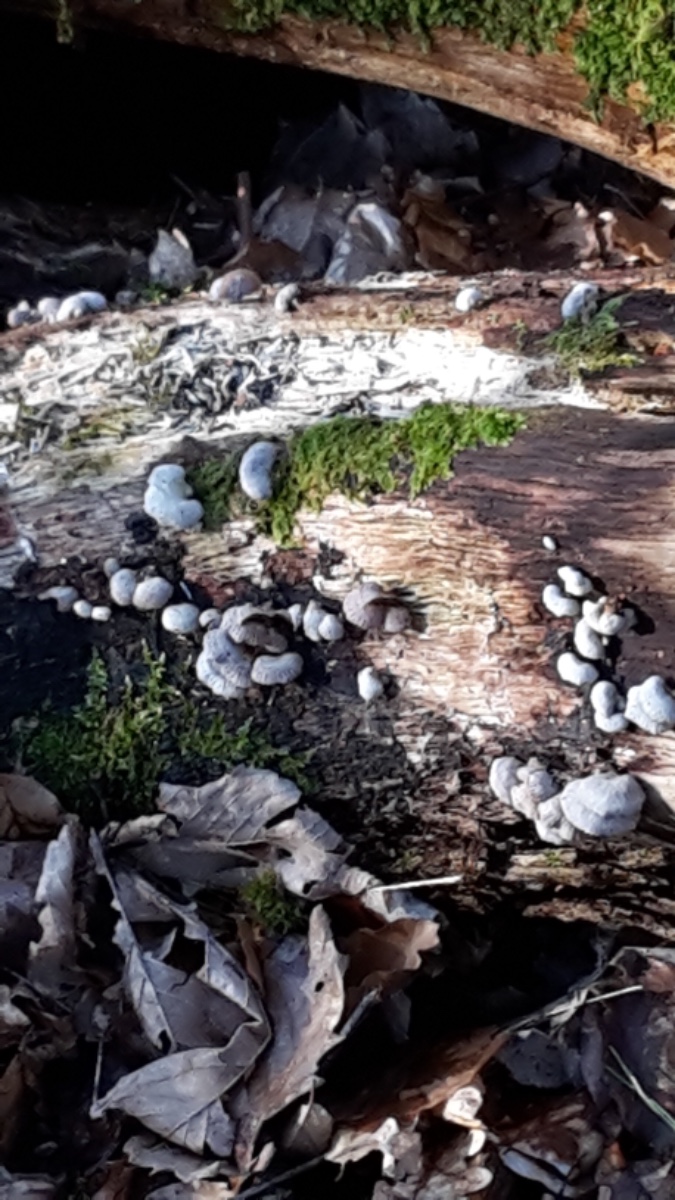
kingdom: Fungi
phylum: Basidiomycota
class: Agaricomycetes
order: Agaricales
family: Schizophyllaceae
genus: Schizophyllum
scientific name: Schizophyllum commune
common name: kløvblad
